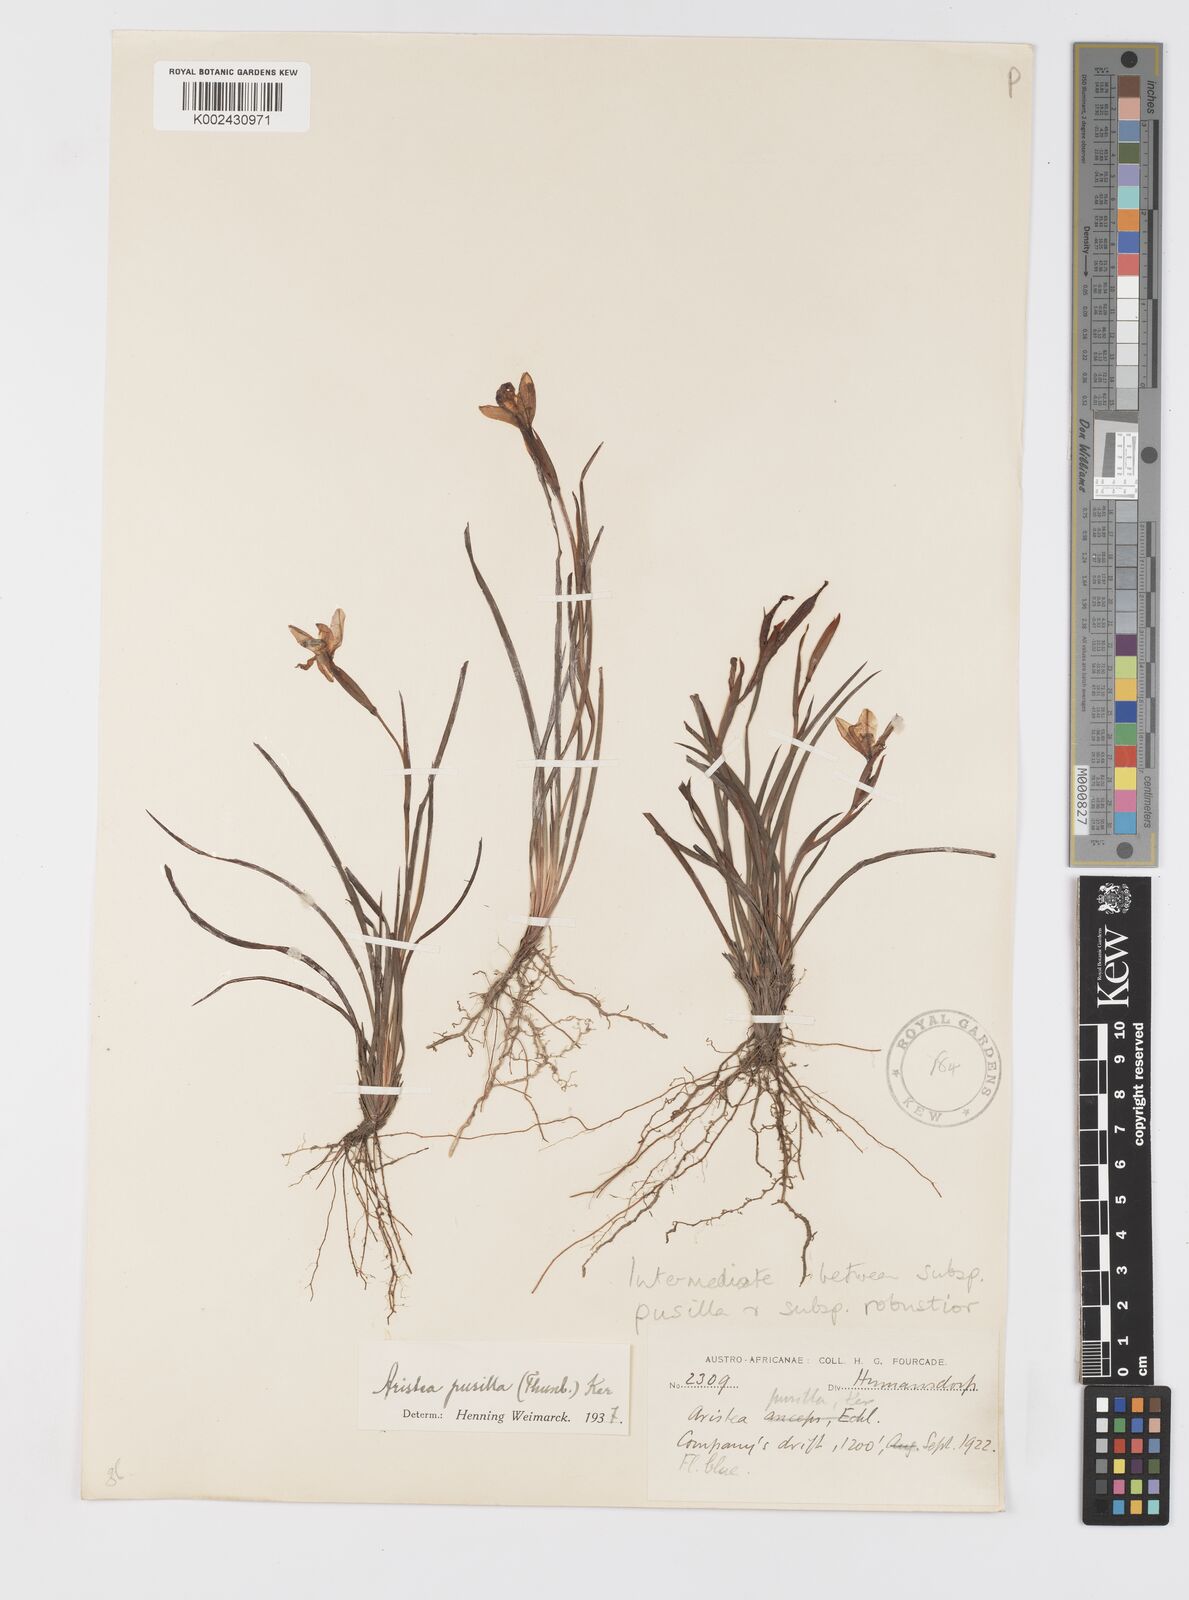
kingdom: Plantae
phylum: Tracheophyta
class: Liliopsida
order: Asparagales
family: Iridaceae
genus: Aristea
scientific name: Aristea pusilla
